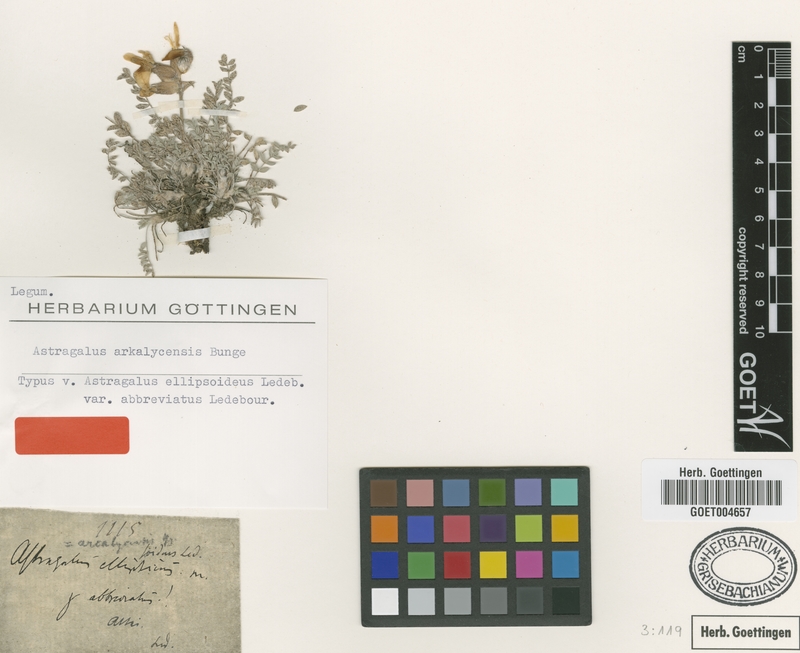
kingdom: Plantae
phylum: Tracheophyta
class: Magnoliopsida
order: Fabales
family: Fabaceae
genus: Astragalus
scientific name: Astragalus arkalycensis
